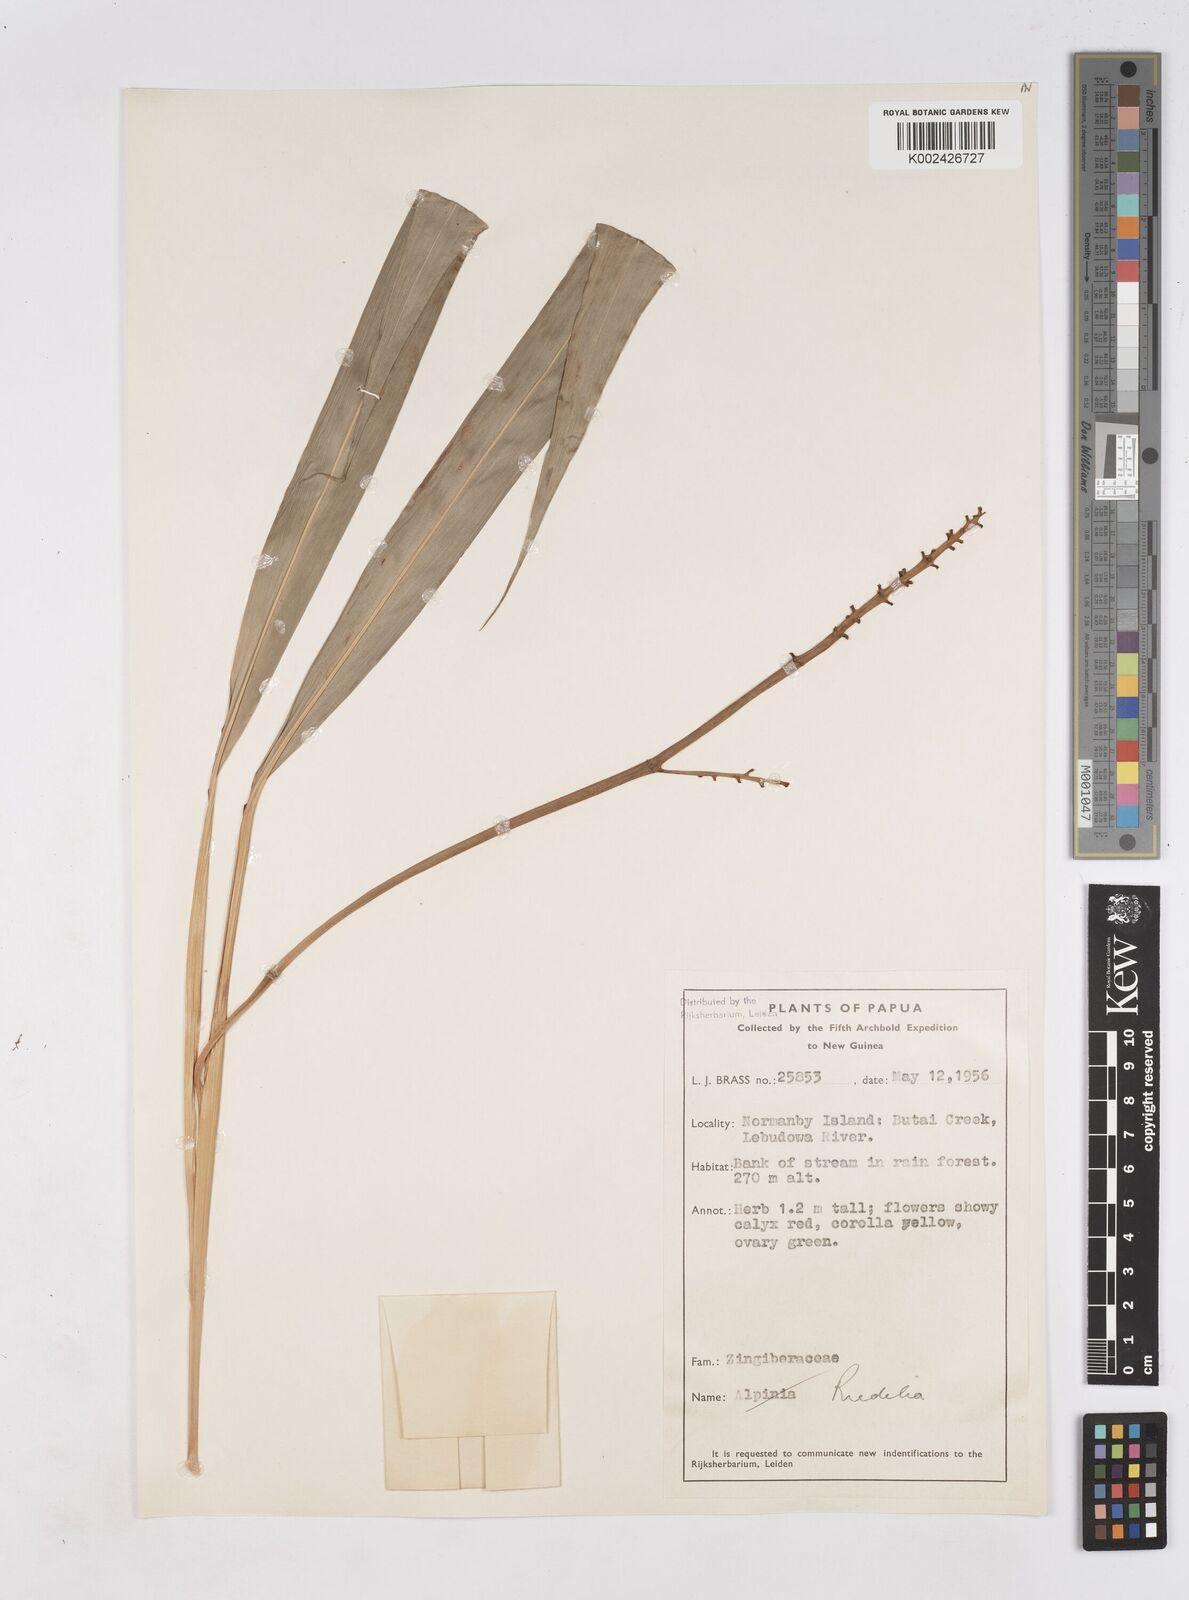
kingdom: Plantae
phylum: Tracheophyta
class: Liliopsida
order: Zingiberales
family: Zingiberaceae
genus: Riedelia
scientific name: Riedelia
